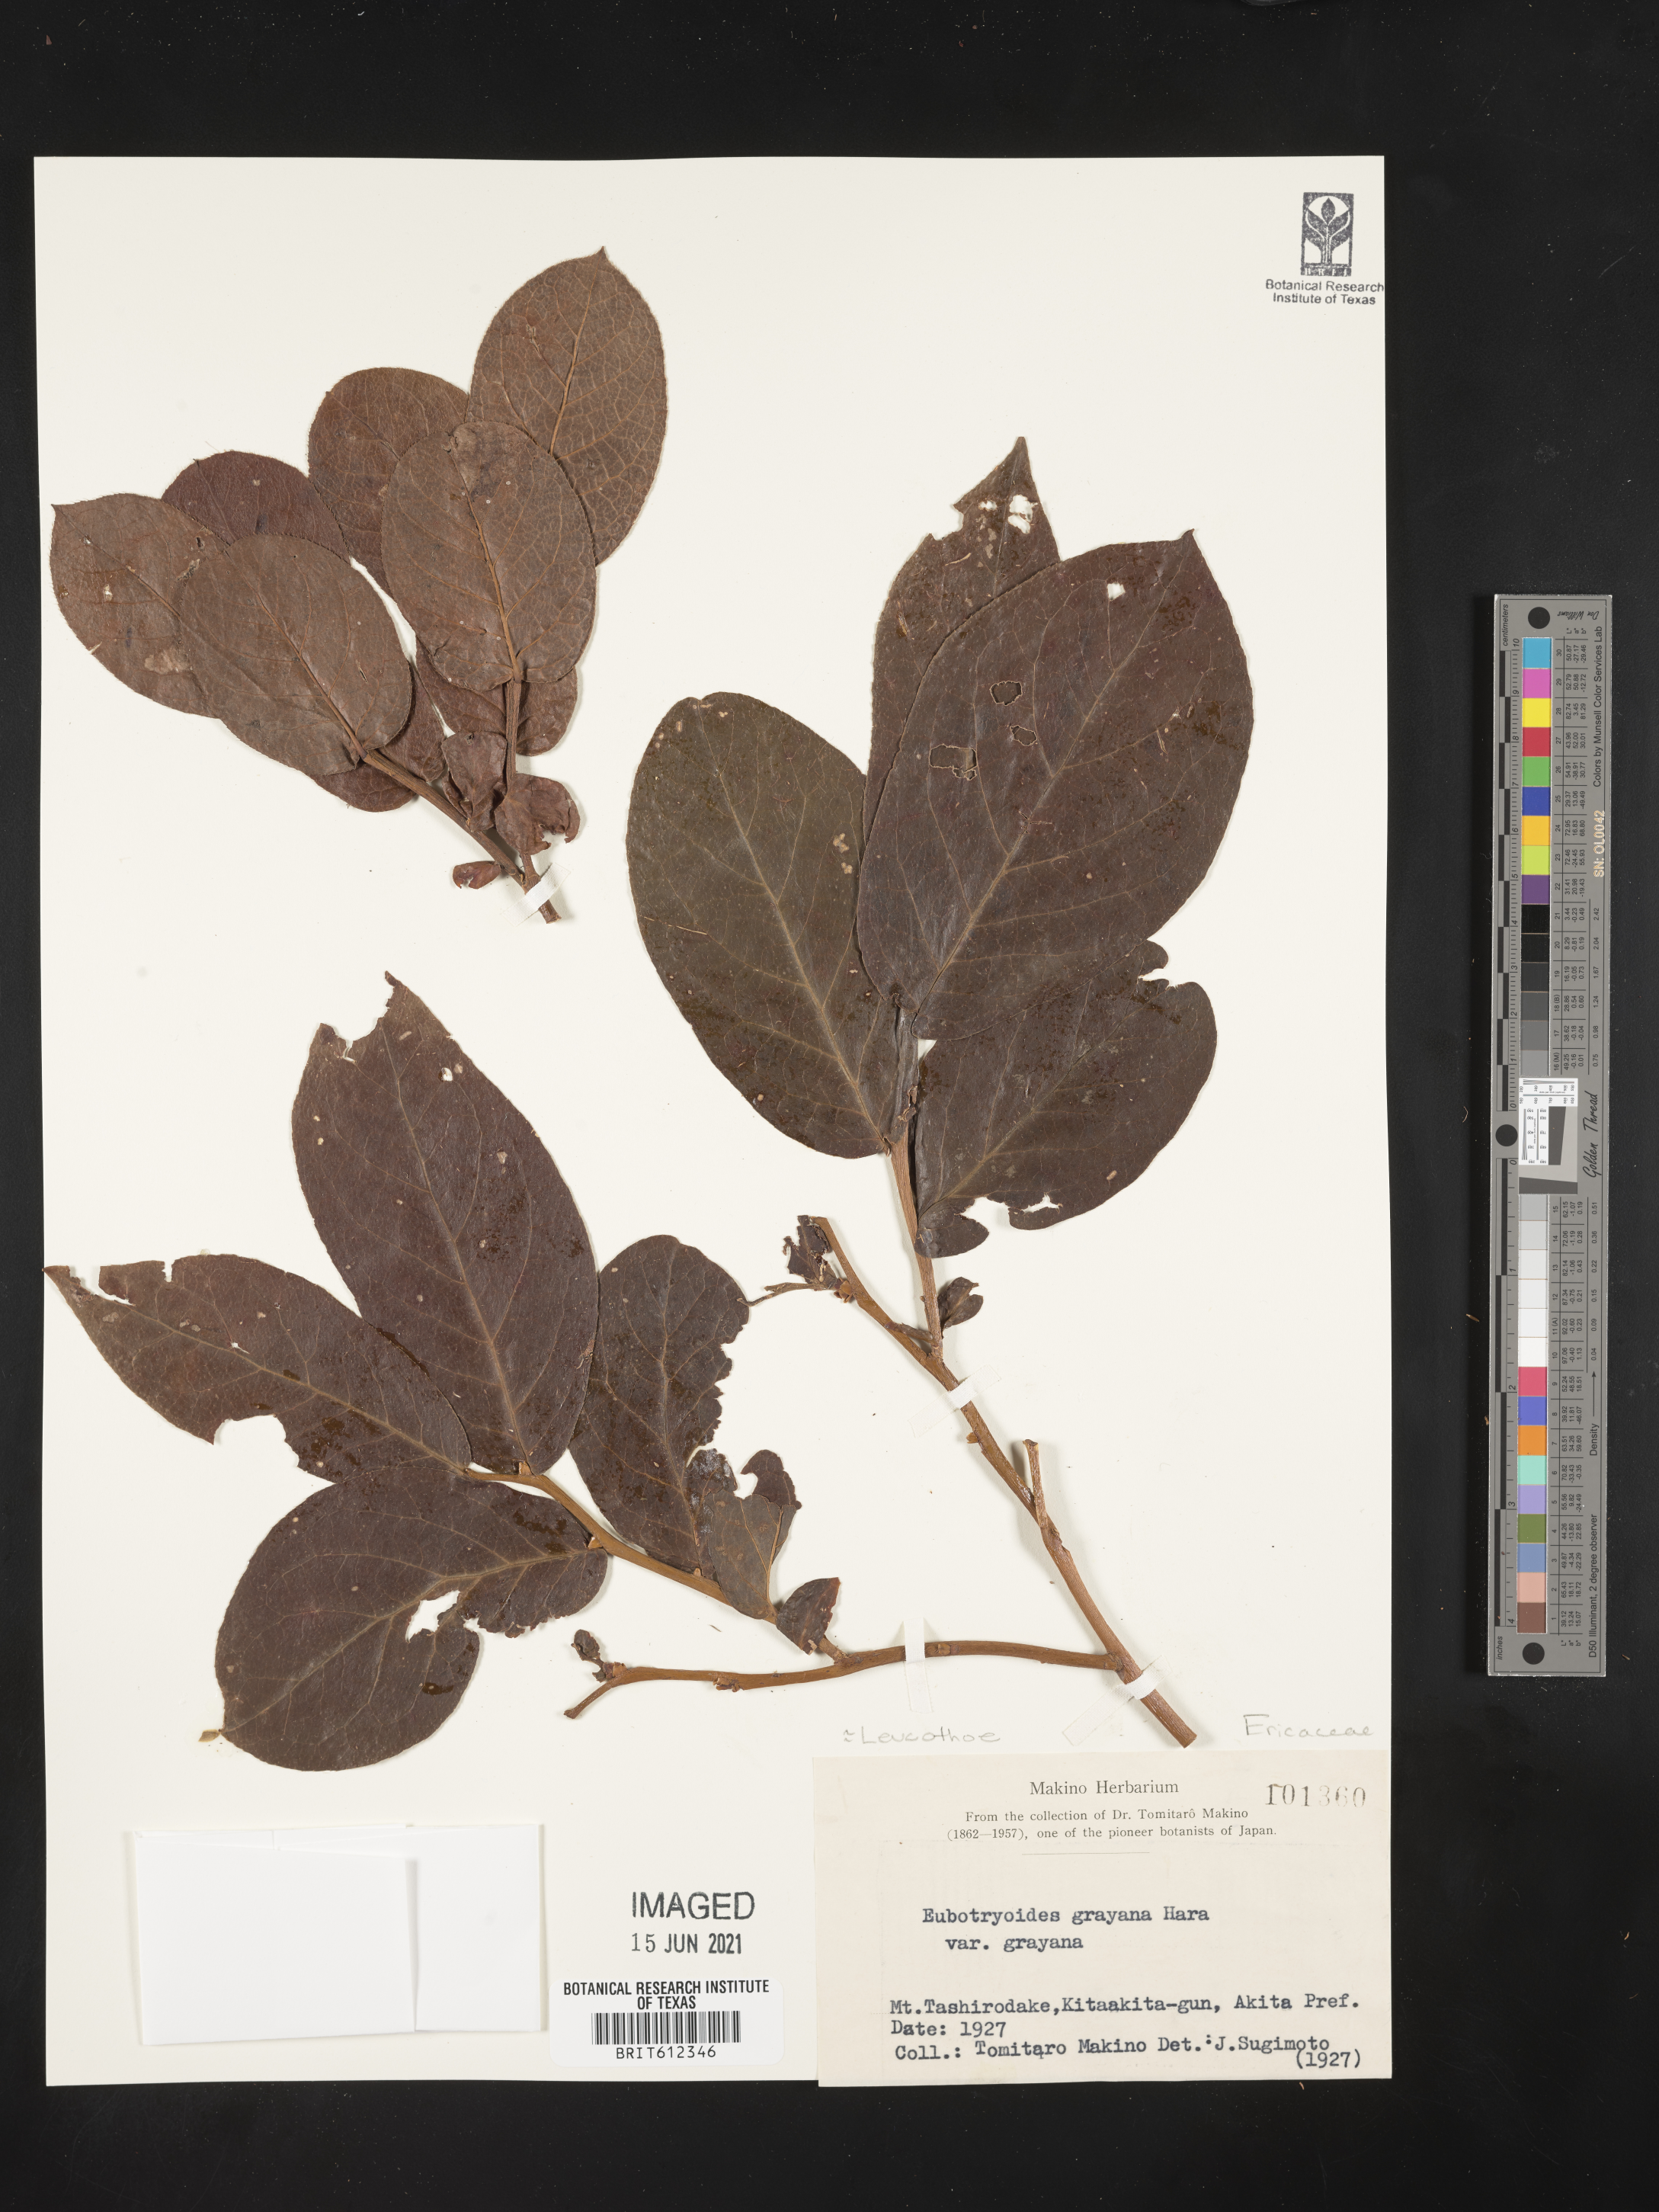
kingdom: Plantae
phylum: Tracheophyta
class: Magnoliopsida
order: Ericales
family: Ericaceae
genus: Leucothoe
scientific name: Leucothoe grayana
